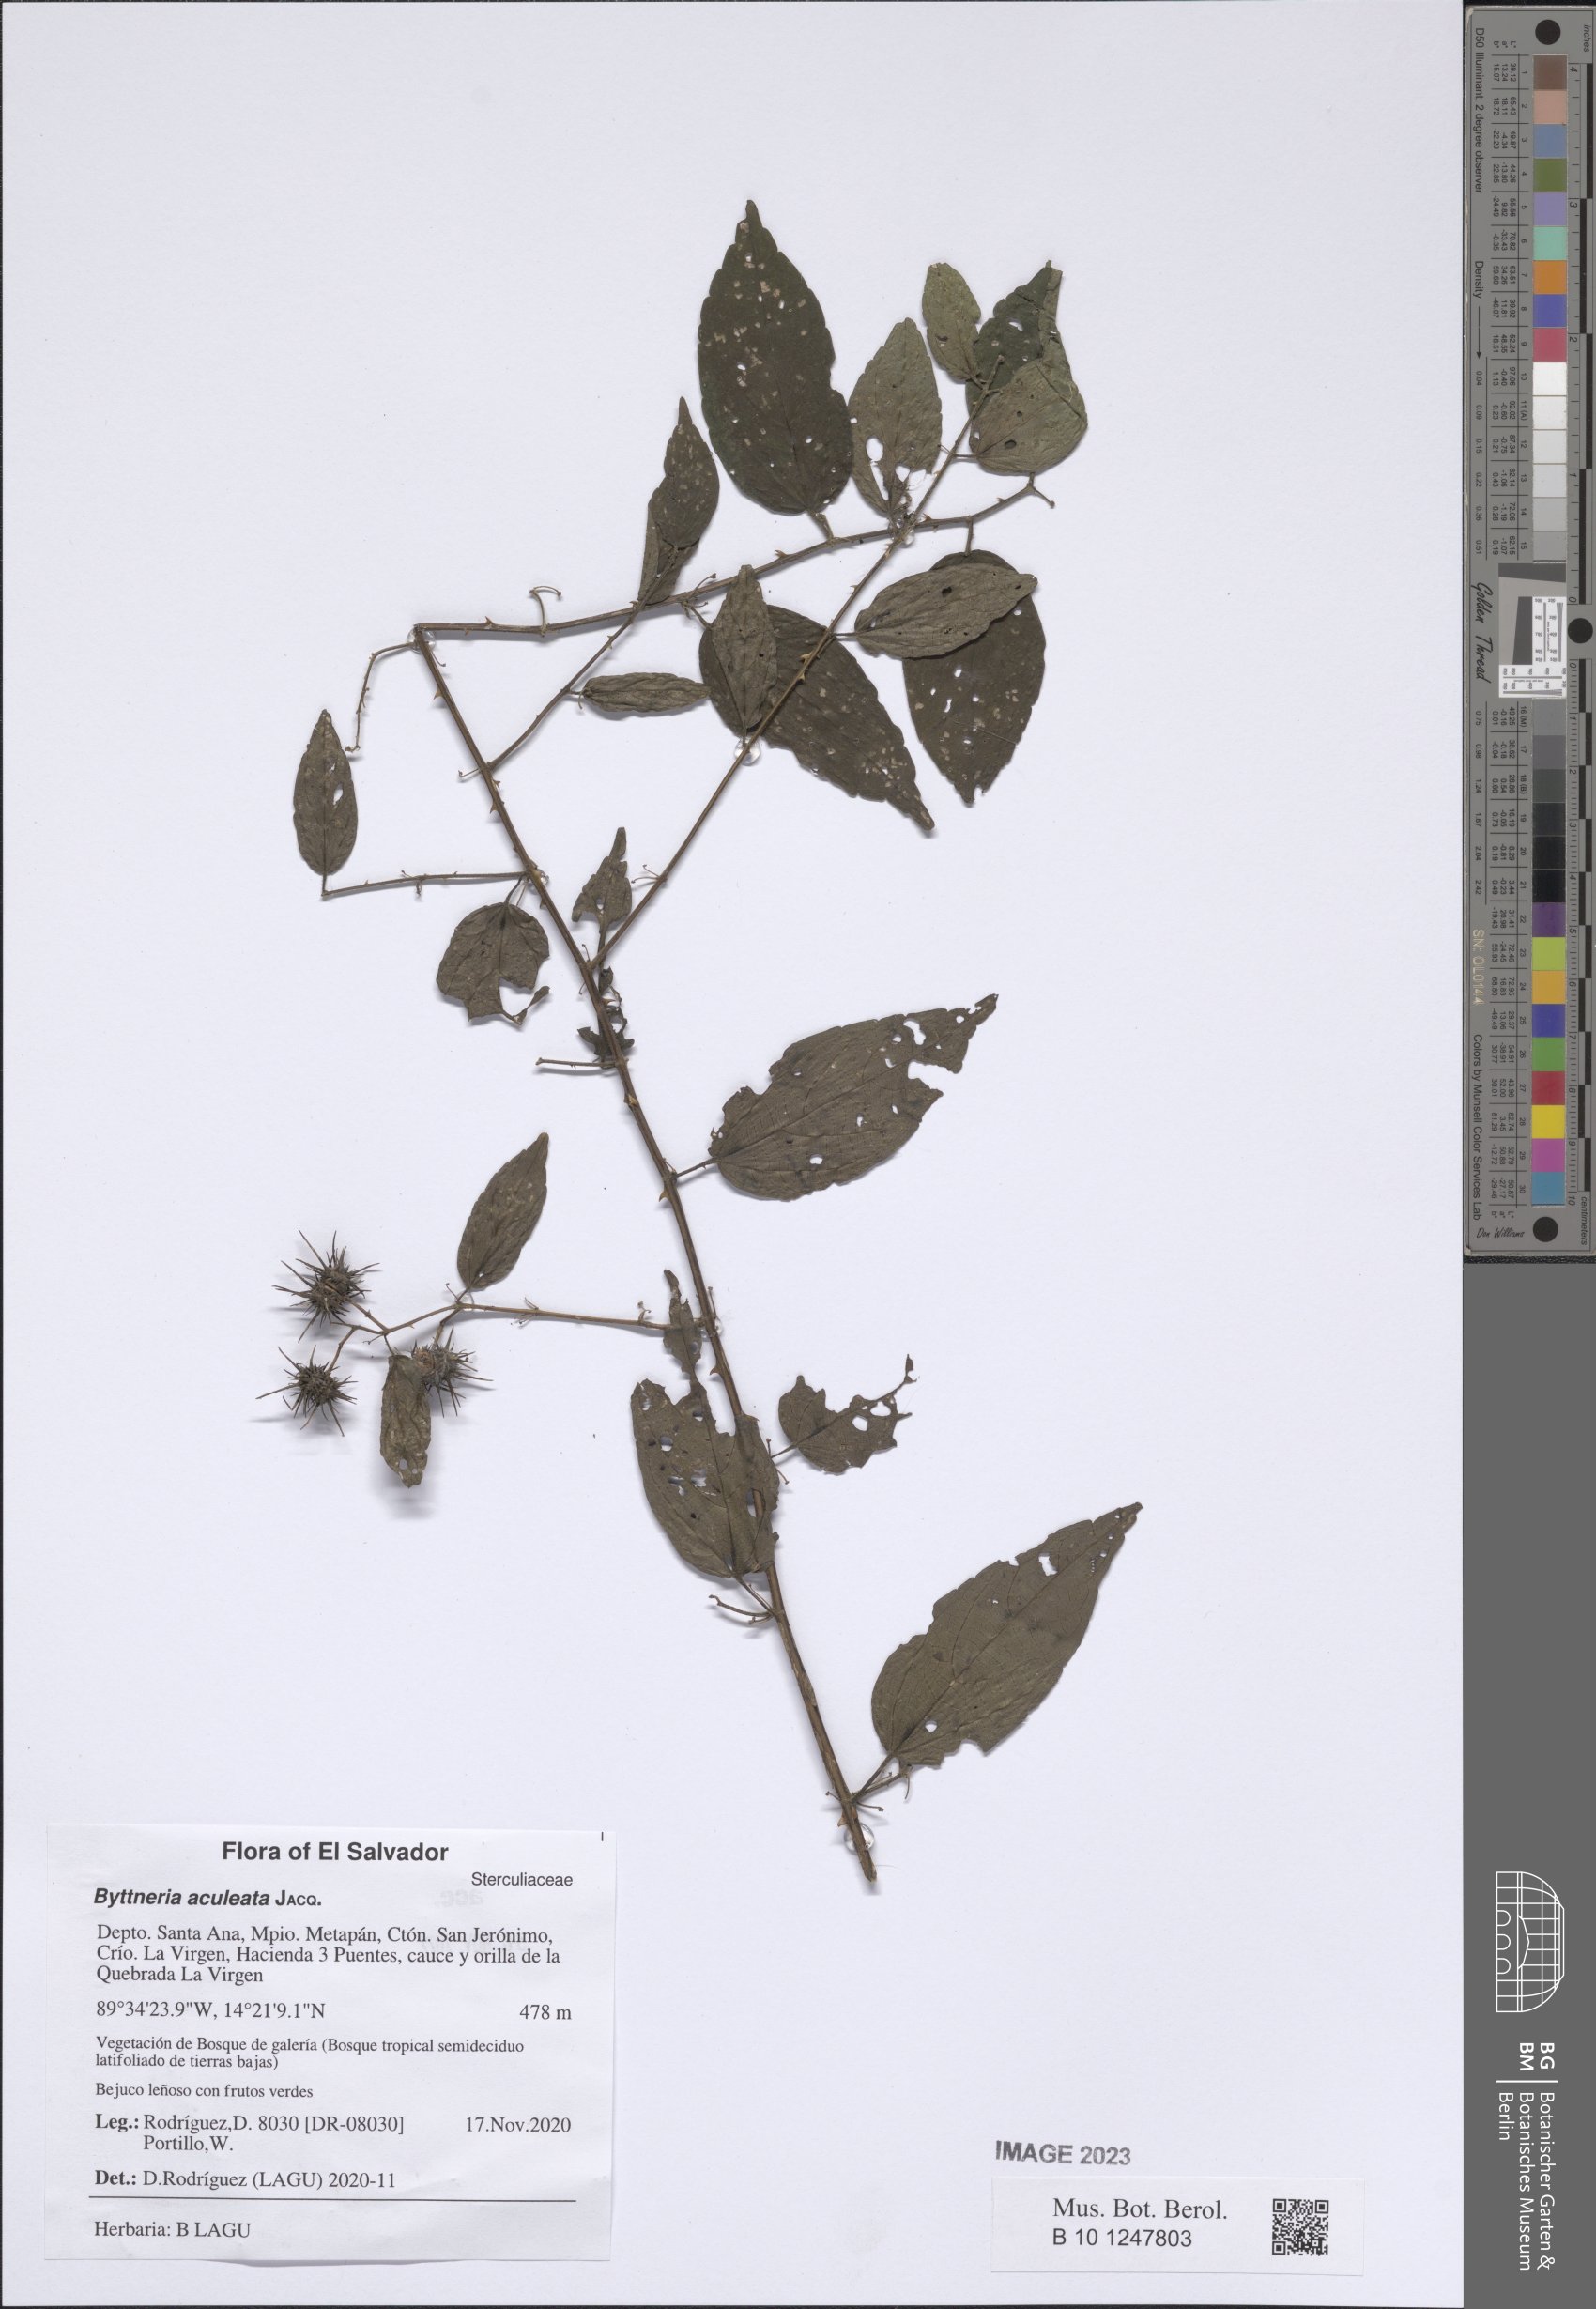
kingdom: Plantae
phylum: Tracheophyta
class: Magnoliopsida
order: Malvales
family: Malvaceae
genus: Byttneria
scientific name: Byttneria aculeata
